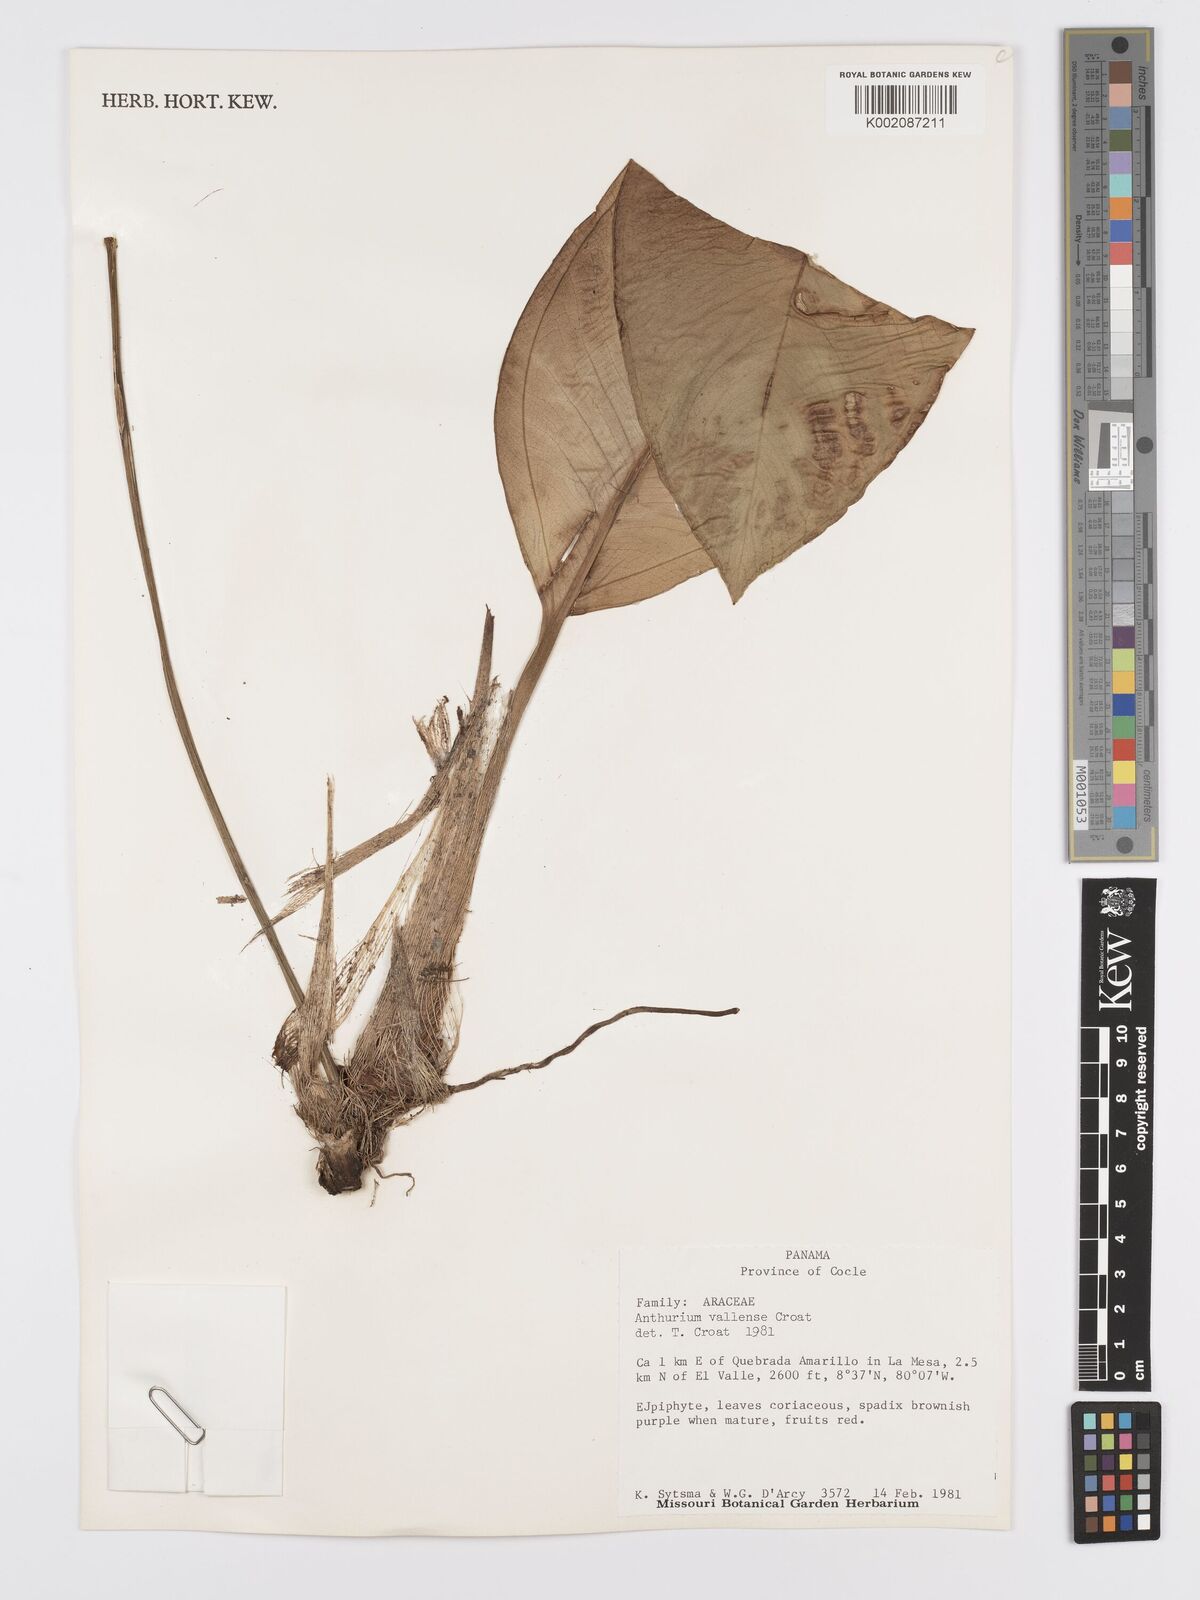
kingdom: Plantae
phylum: Tracheophyta
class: Liliopsida
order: Alismatales
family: Araceae
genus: Anthurium
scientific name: Anthurium vallense
